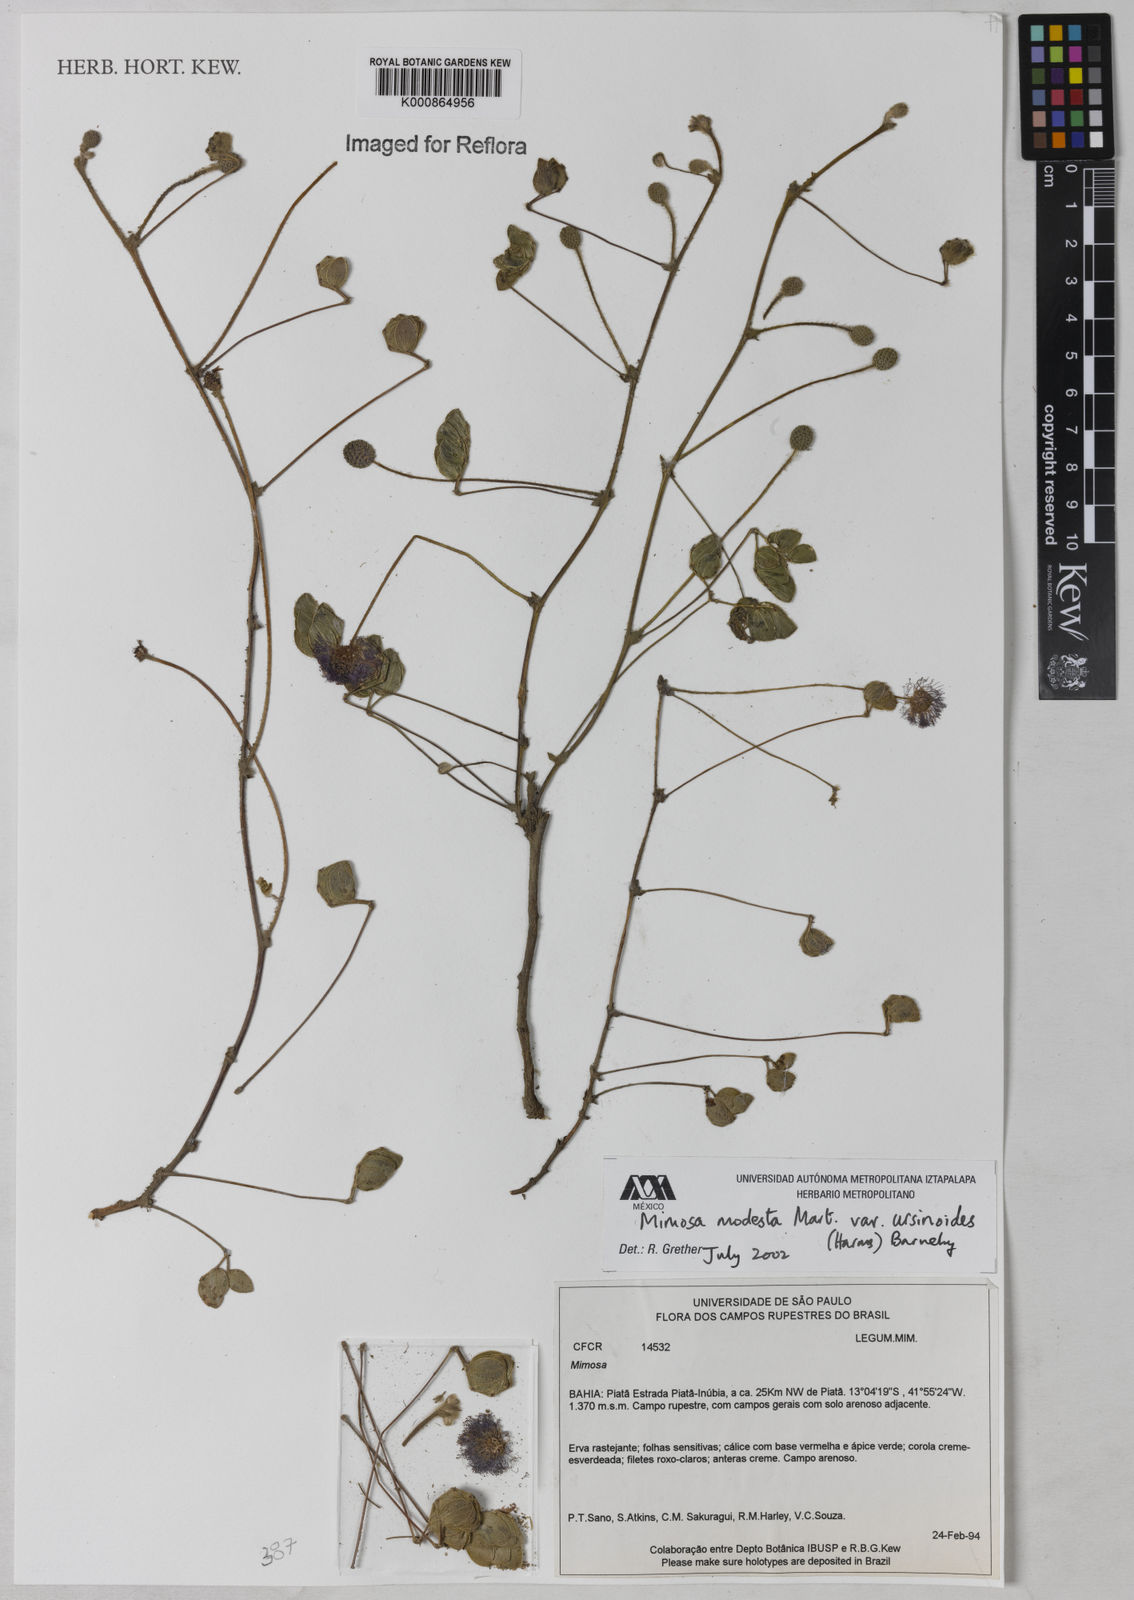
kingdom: Plantae
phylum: Tracheophyta
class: Magnoliopsida
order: Fabales
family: Fabaceae
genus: Mimosa
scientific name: Mimosa modesta
